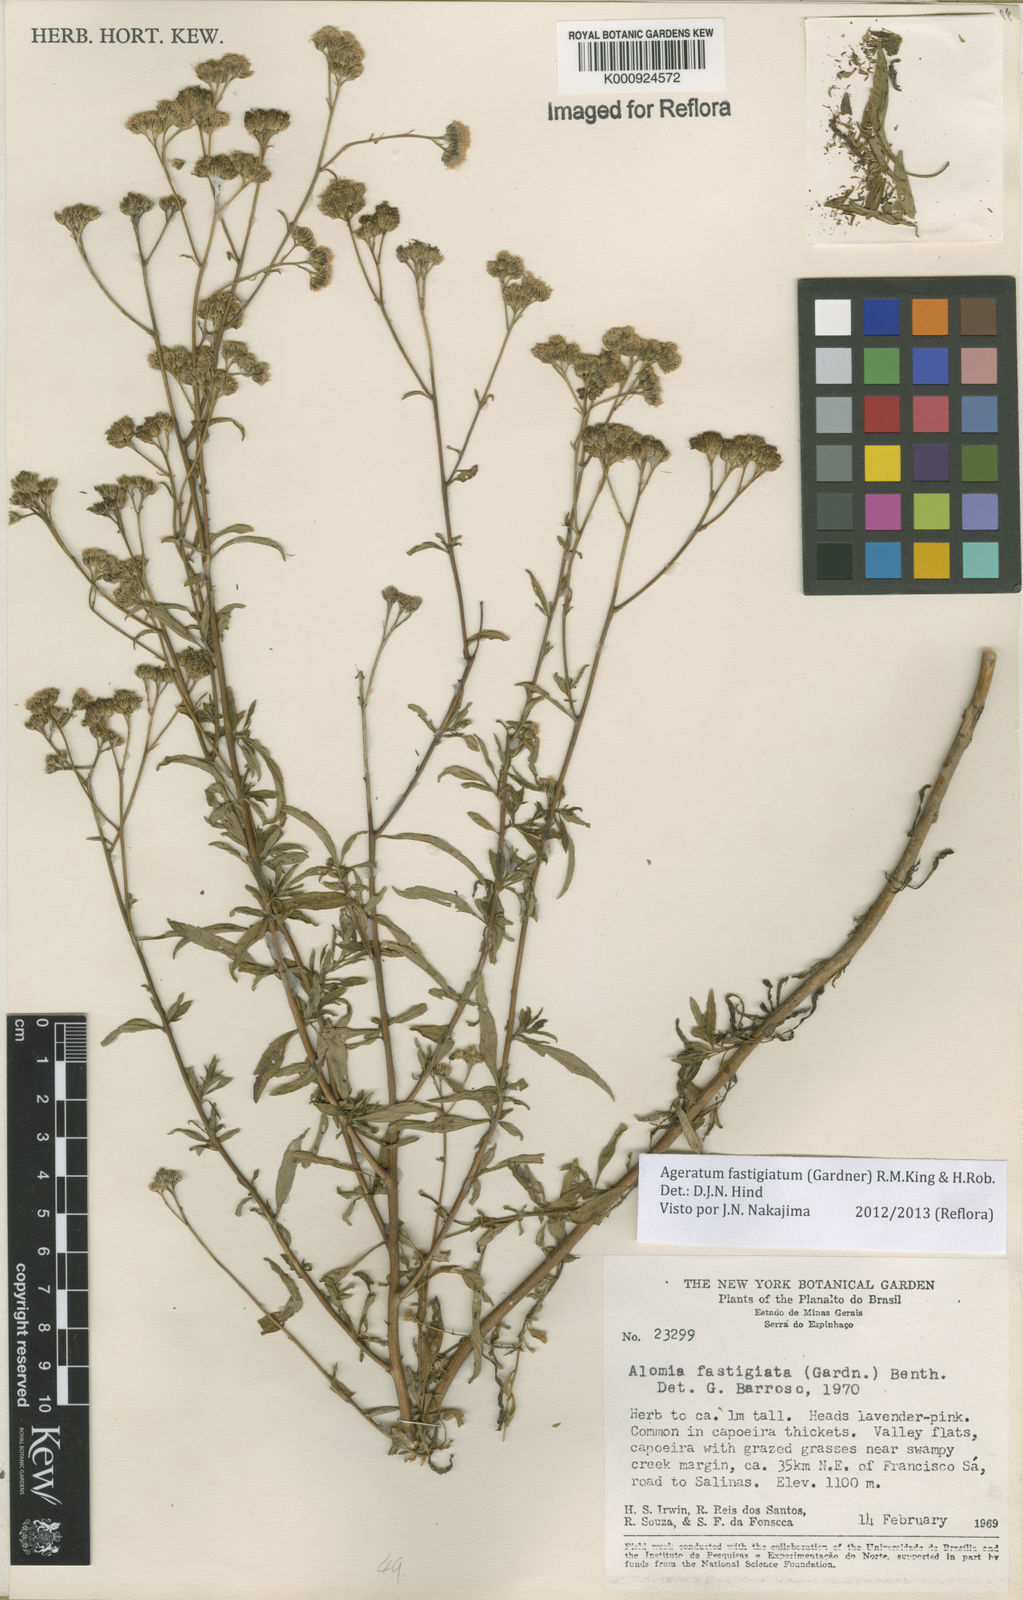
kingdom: Plantae
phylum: Tracheophyta
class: Magnoliopsida
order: Asterales
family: Asteraceae
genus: Ageratum
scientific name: Ageratum fastigiatum
